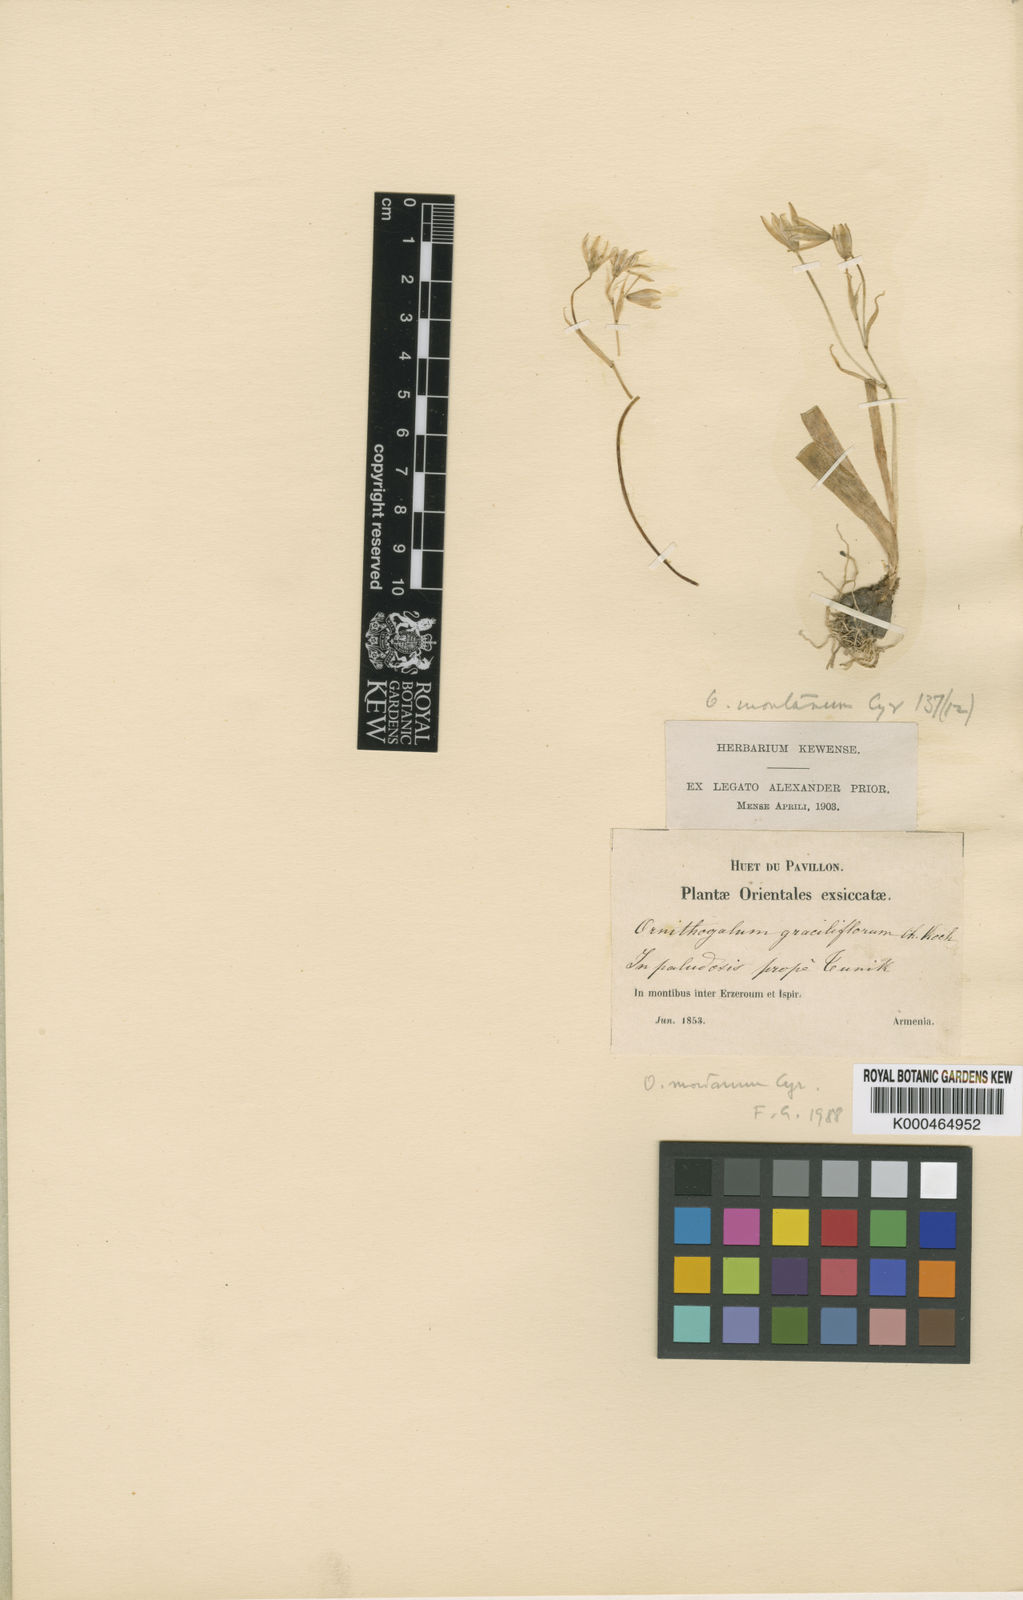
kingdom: Plantae
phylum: Tracheophyta
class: Liliopsida
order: Asparagales
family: Asparagaceae
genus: Ornithogalum
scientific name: Ornithogalum
